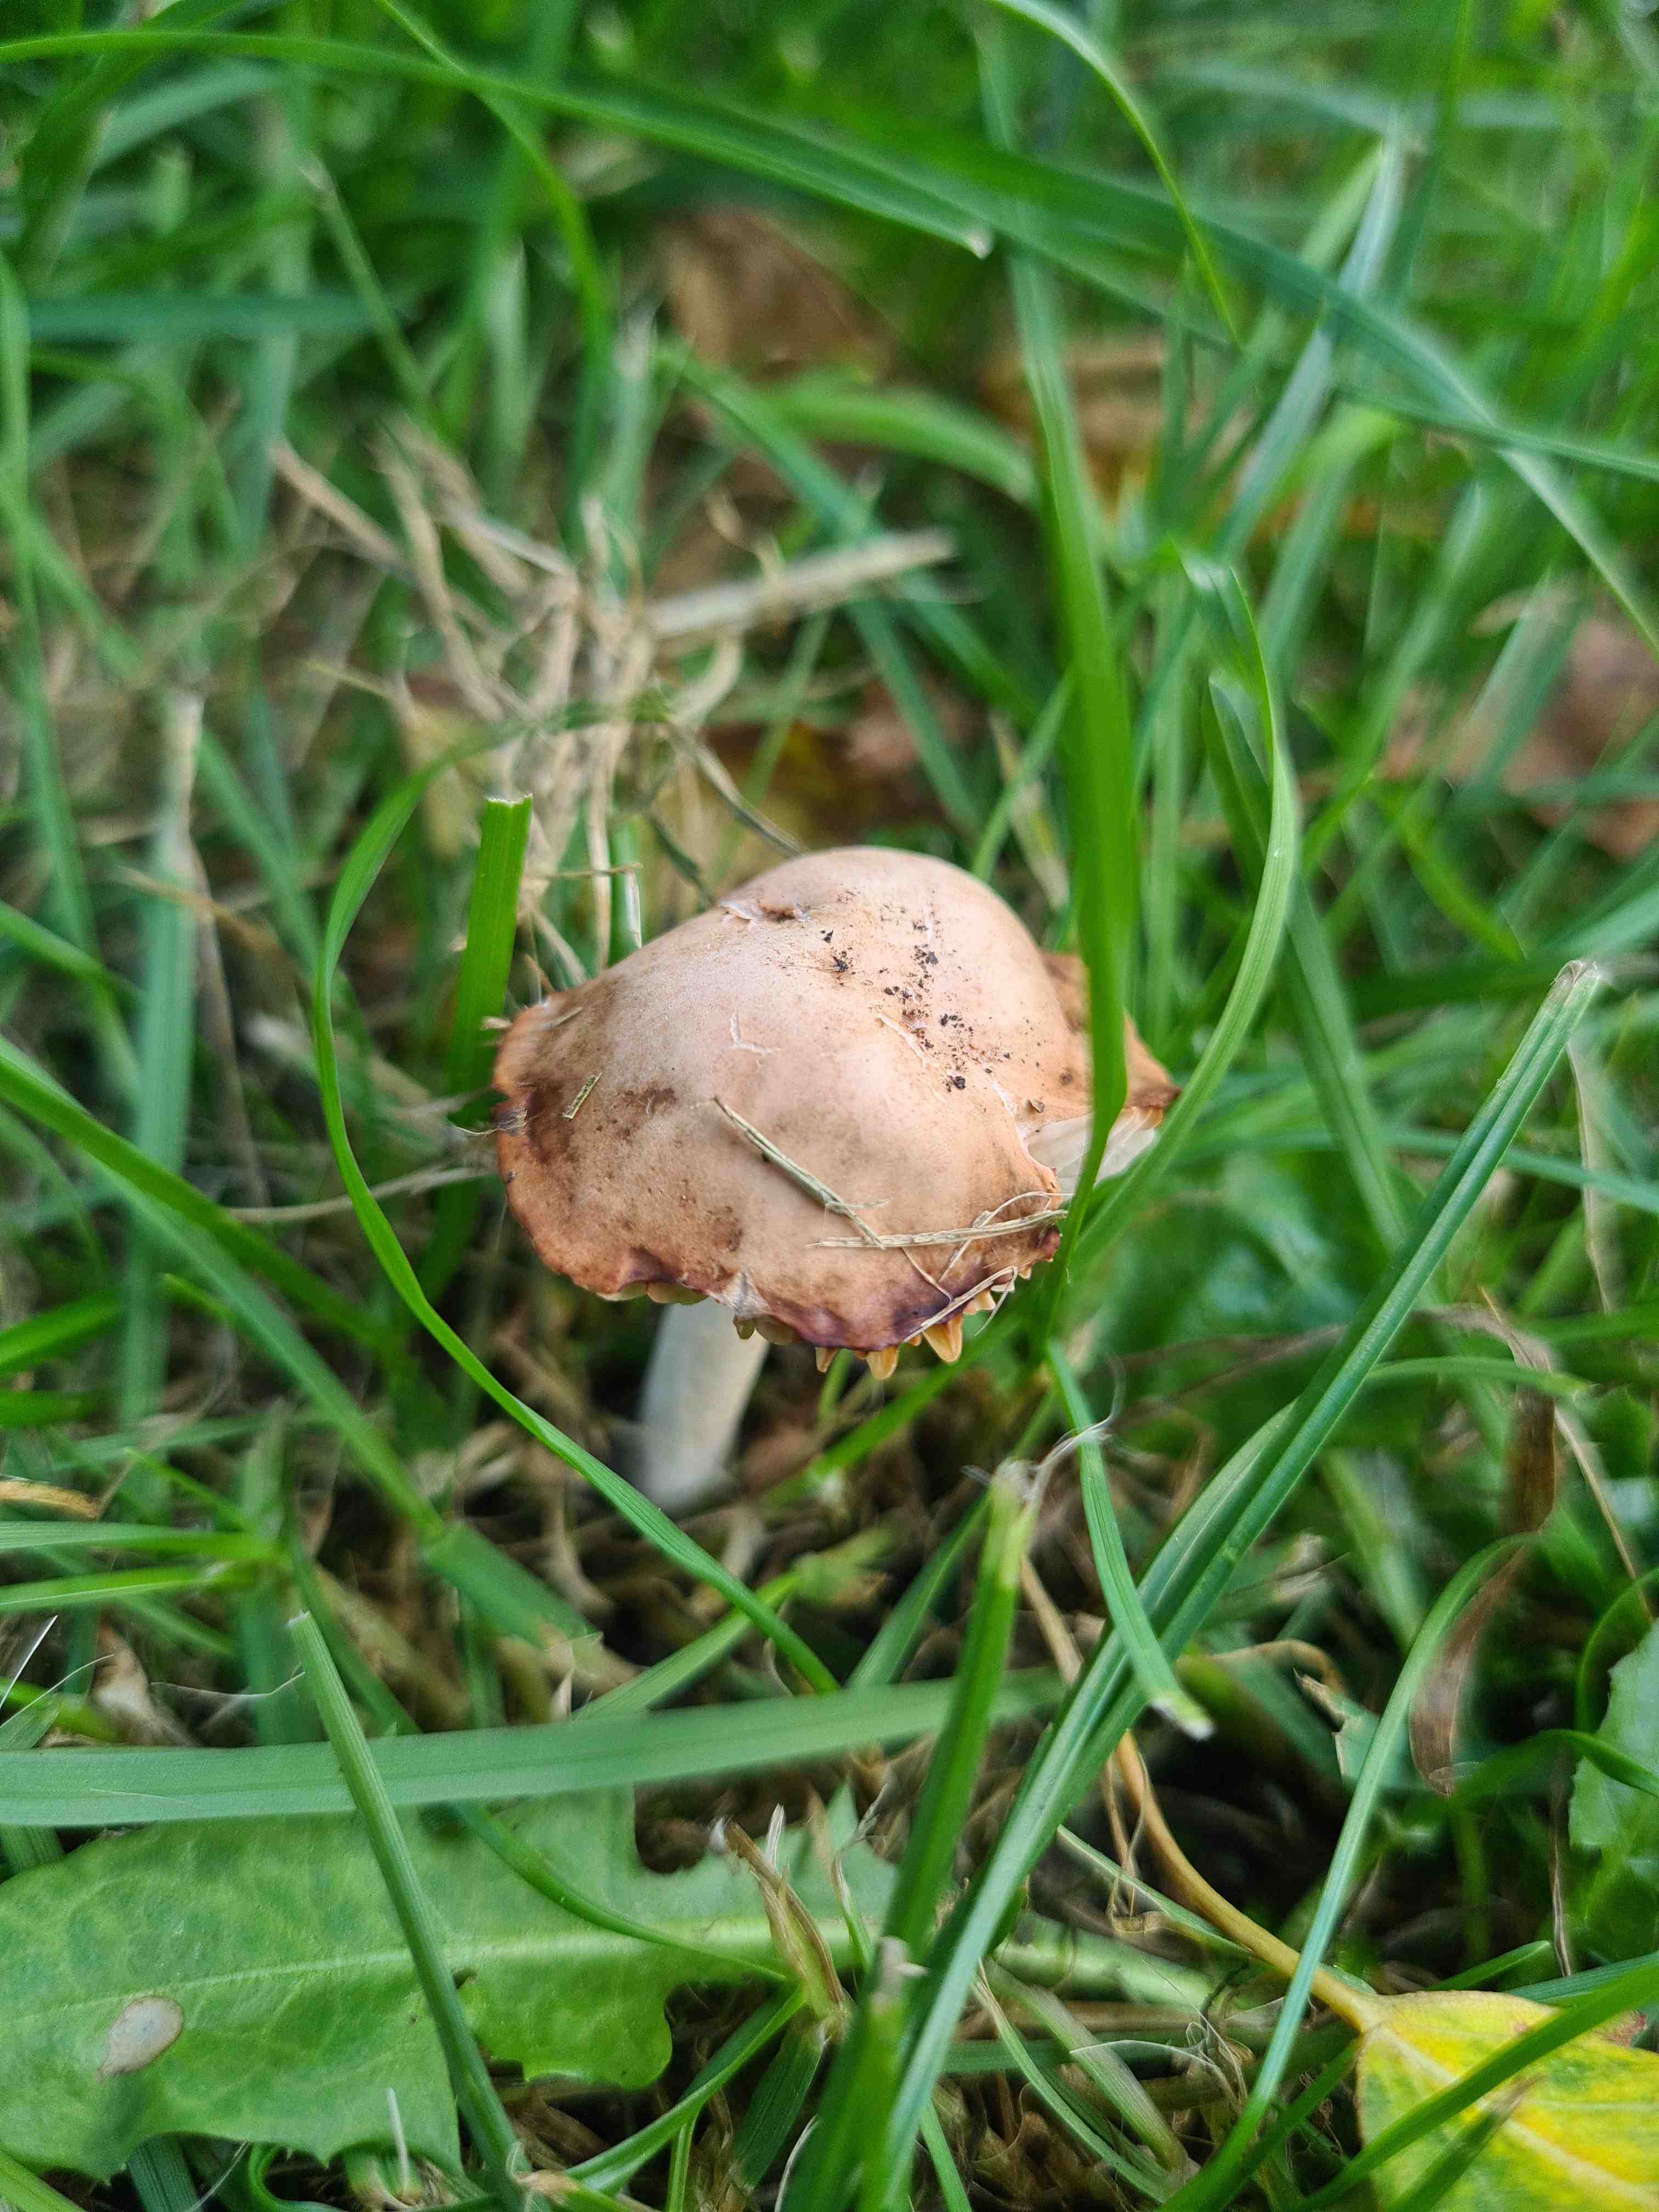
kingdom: Fungi
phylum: Basidiomycota
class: Agaricomycetes
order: Agaricales
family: Marasmiaceae
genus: Marasmius
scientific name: Marasmius oreades
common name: elledans-bruskhat
